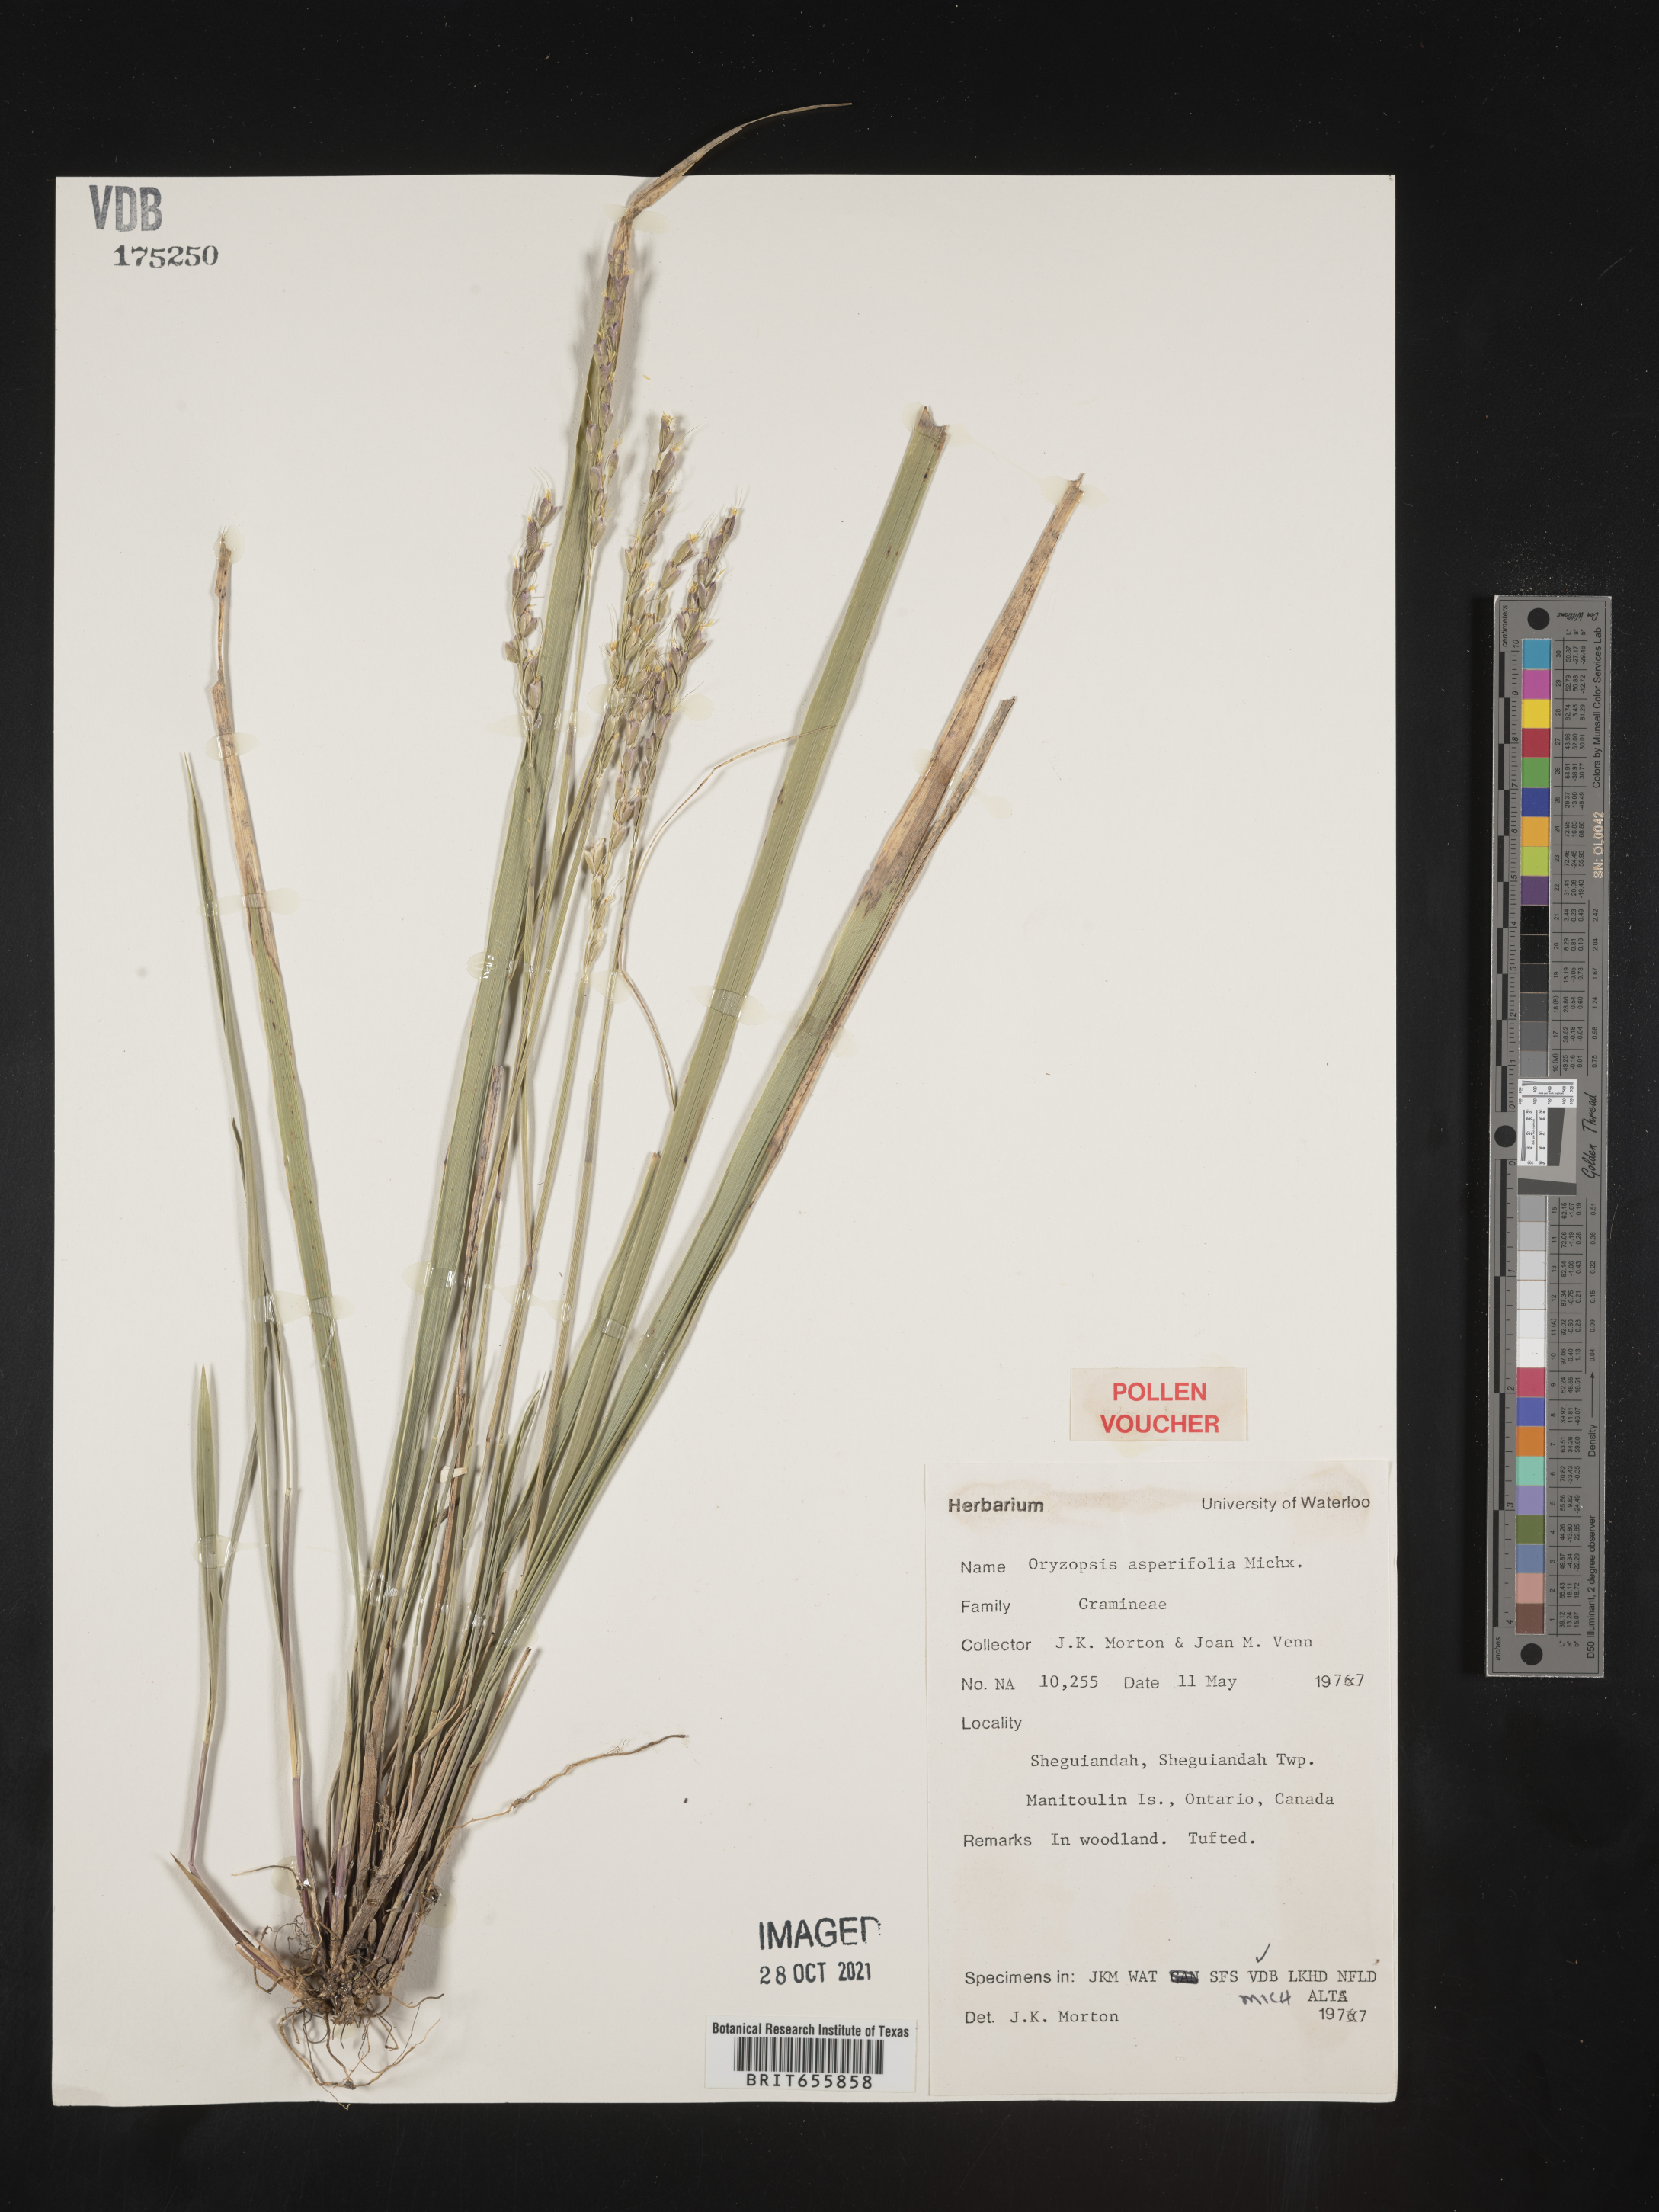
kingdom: Plantae
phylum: Tracheophyta
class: Liliopsida
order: Poales
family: Poaceae
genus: Oryzopsis
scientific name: Oryzopsis
